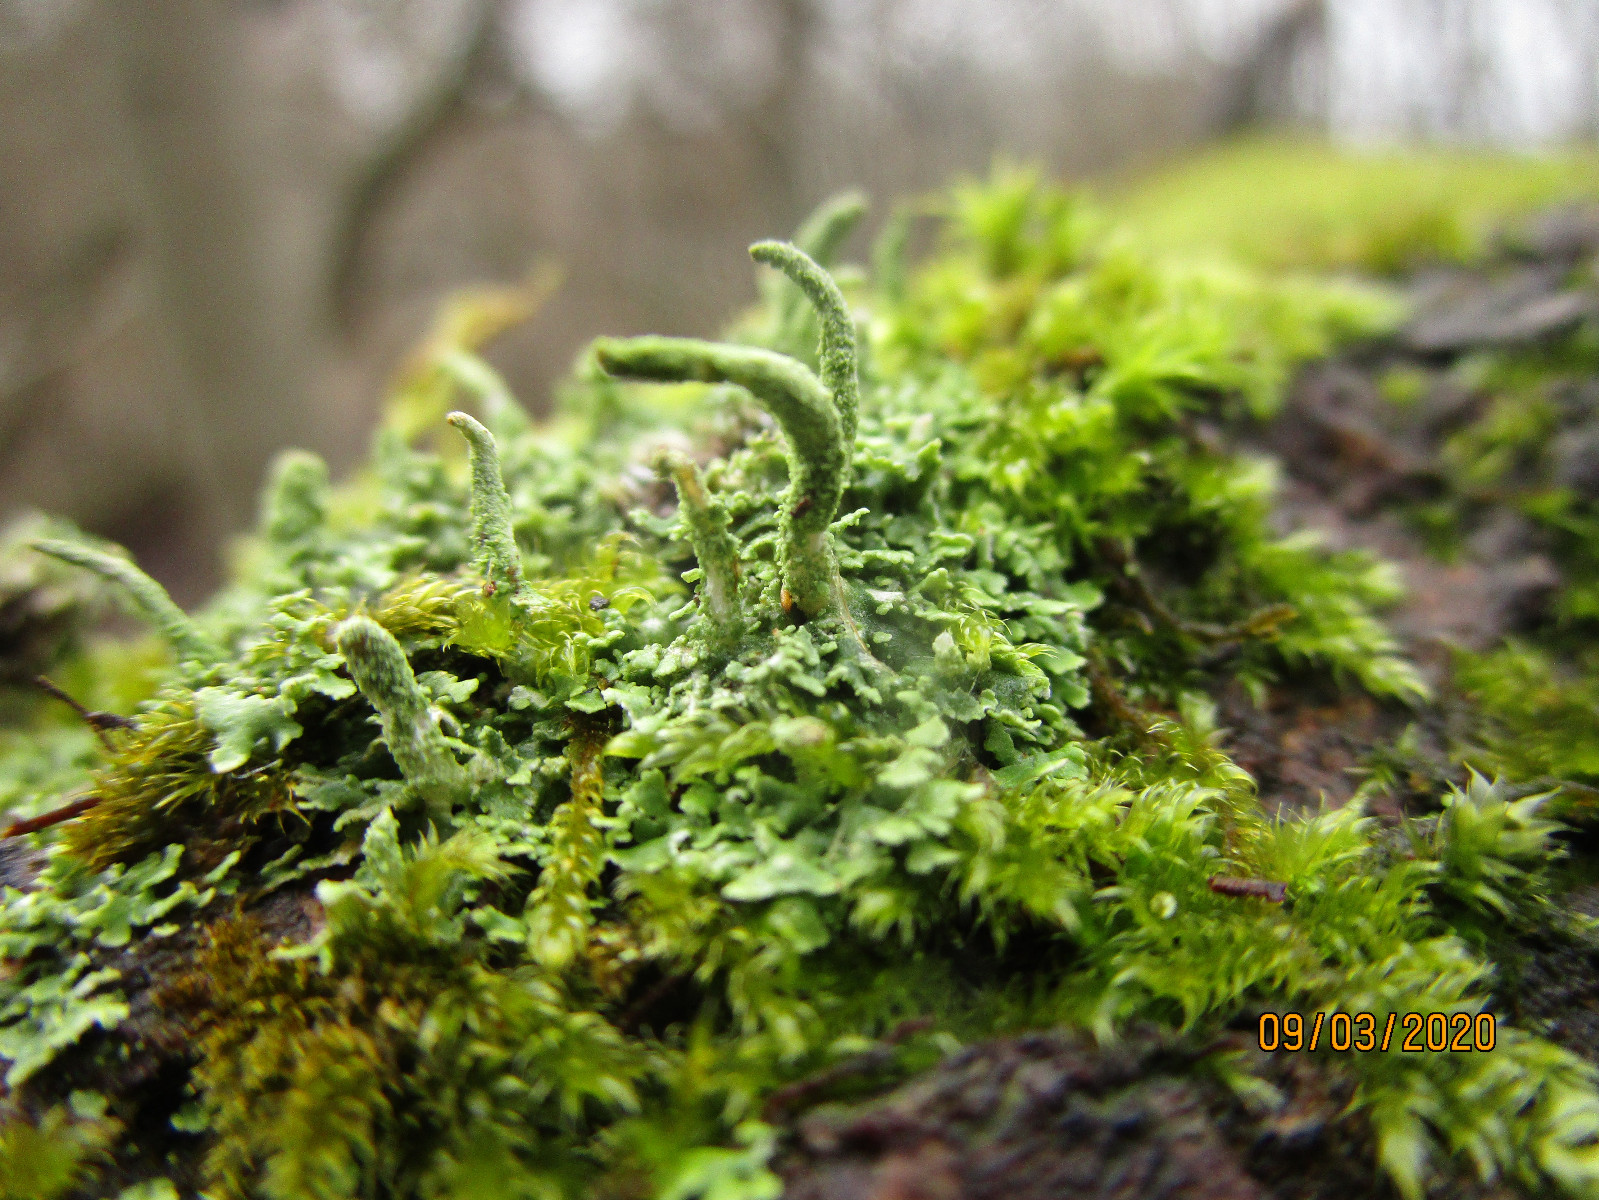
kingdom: Fungi
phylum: Ascomycota
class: Lecanoromycetes
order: Lecanorales
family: Cladoniaceae
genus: Cladonia
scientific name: Cladonia coniocraea
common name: træfods-bægerlav
